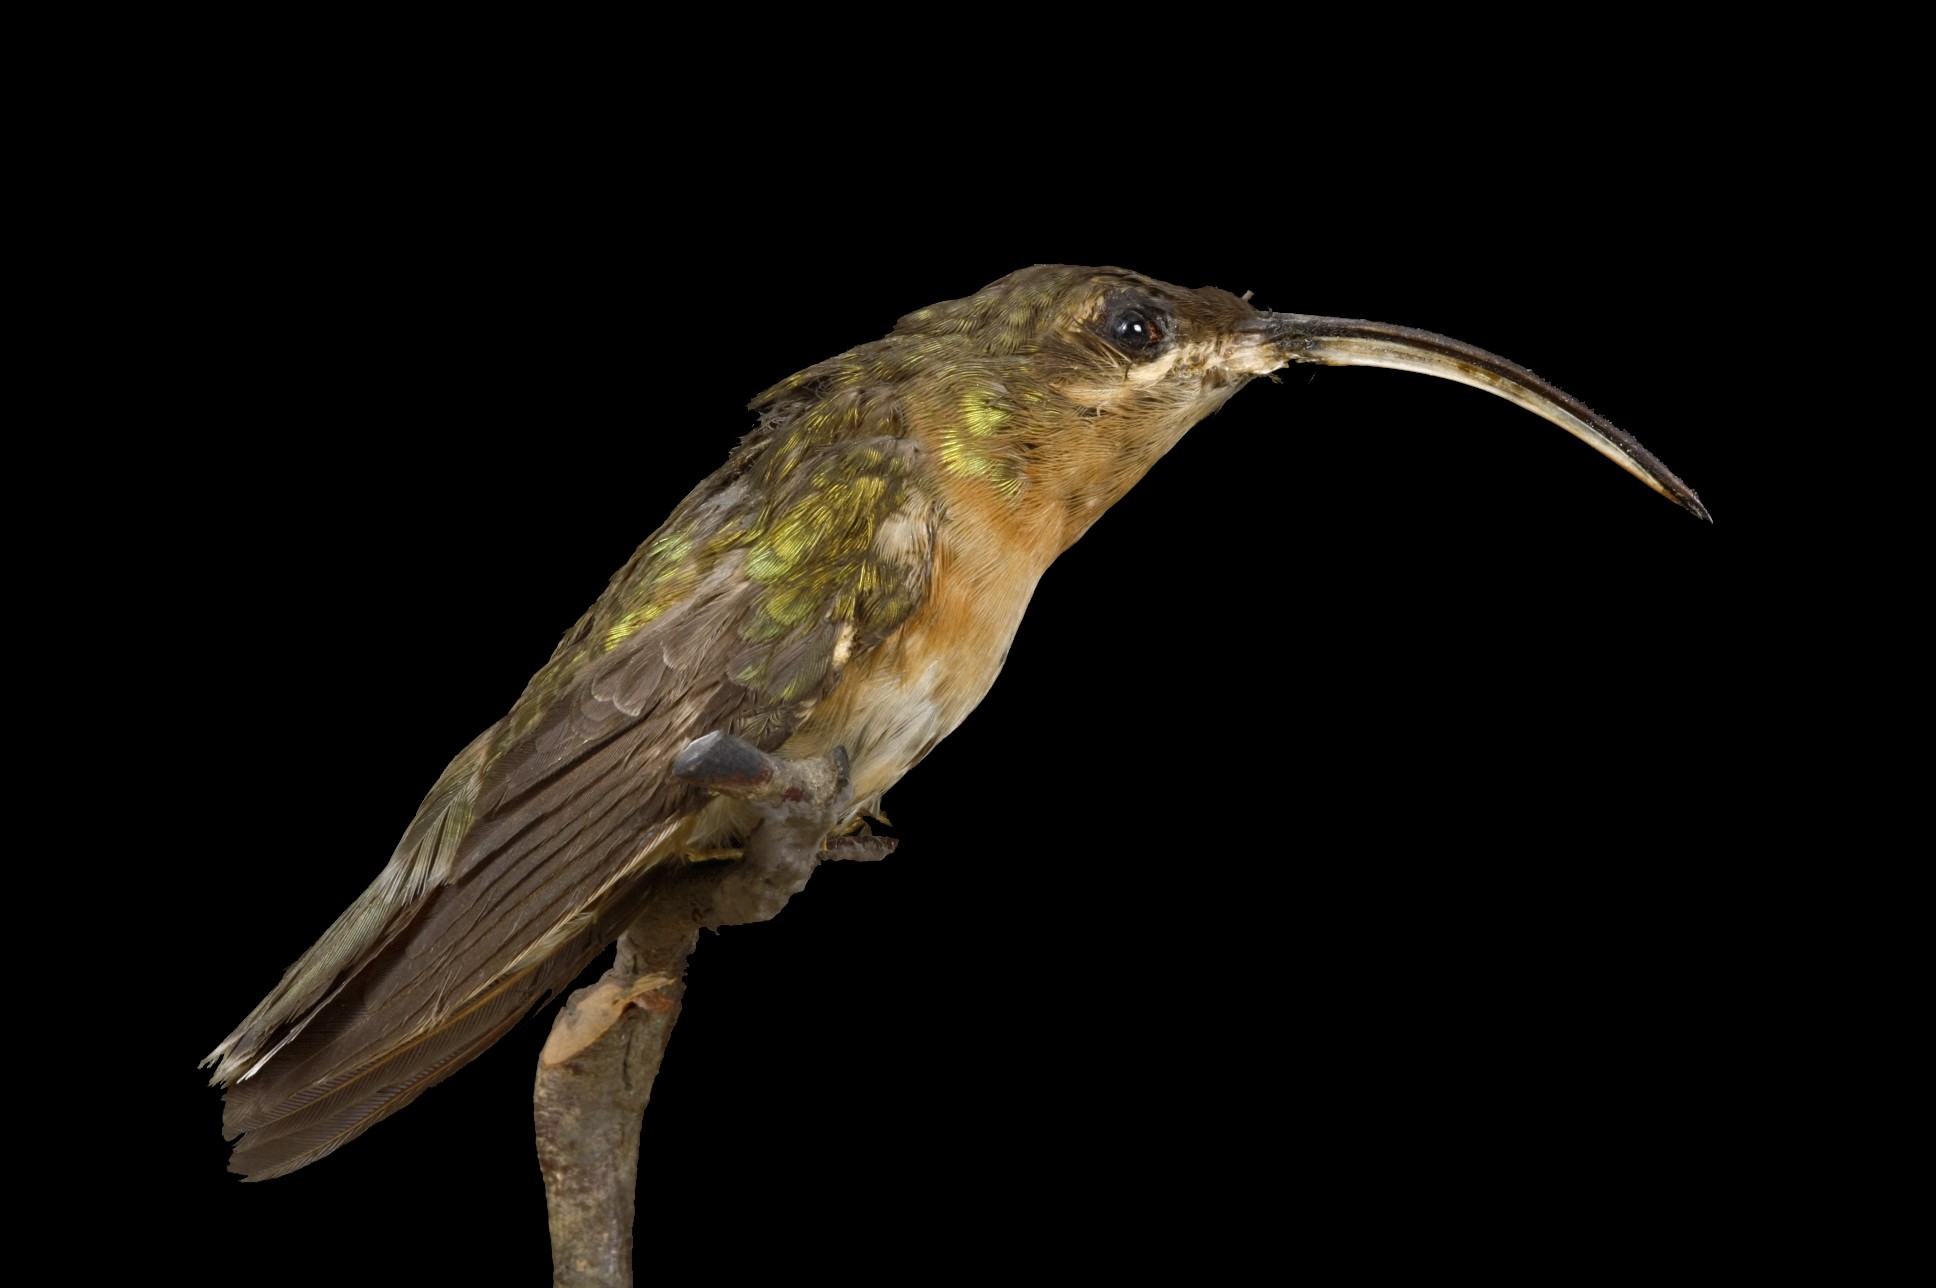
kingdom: Animalia
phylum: Chordata
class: Aves
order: Apodiformes
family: Trochilidae
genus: Pampa
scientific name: Pampa rufa
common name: Rufous sabrewing
